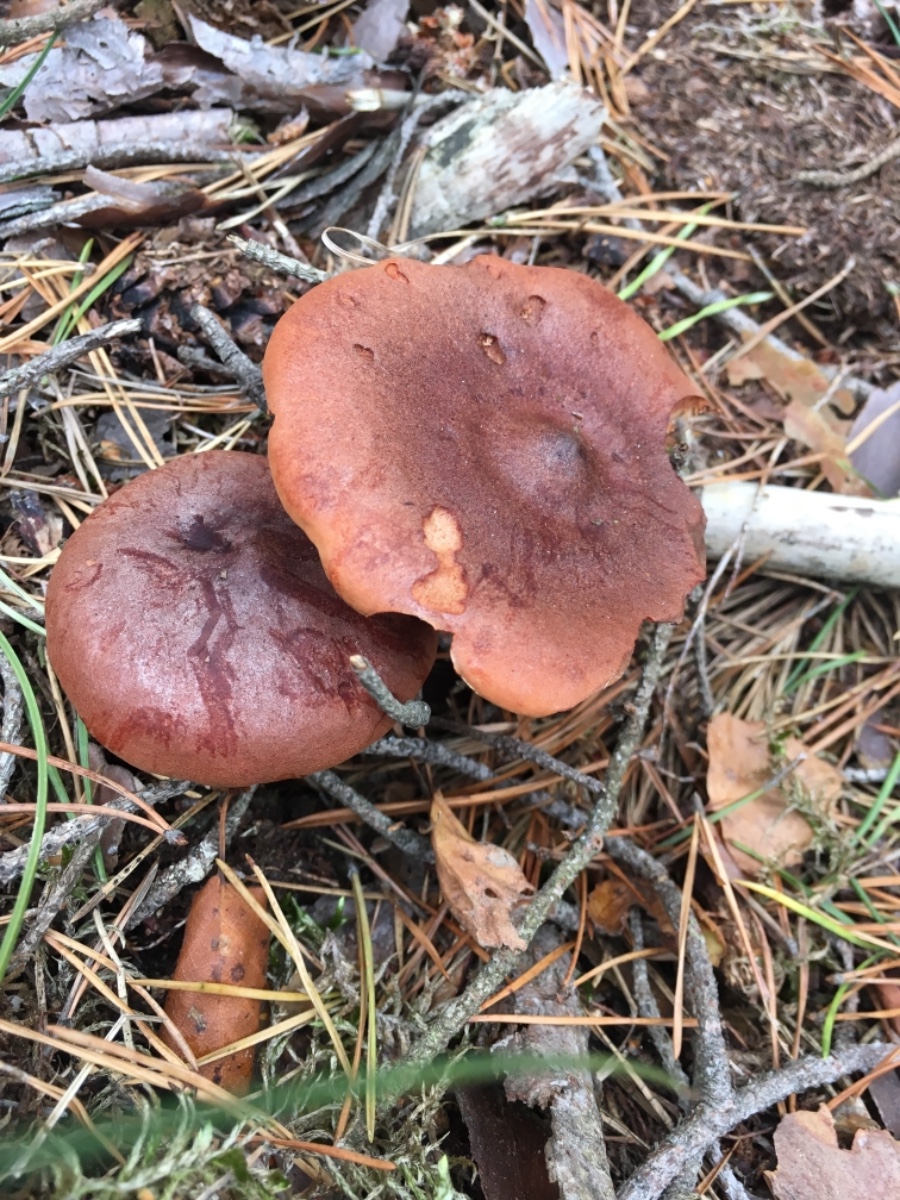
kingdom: Fungi
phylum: Basidiomycota
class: Agaricomycetes
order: Russulales
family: Russulaceae
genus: Lactarius
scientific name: Lactarius rufus
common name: rødbrun mælkehat
